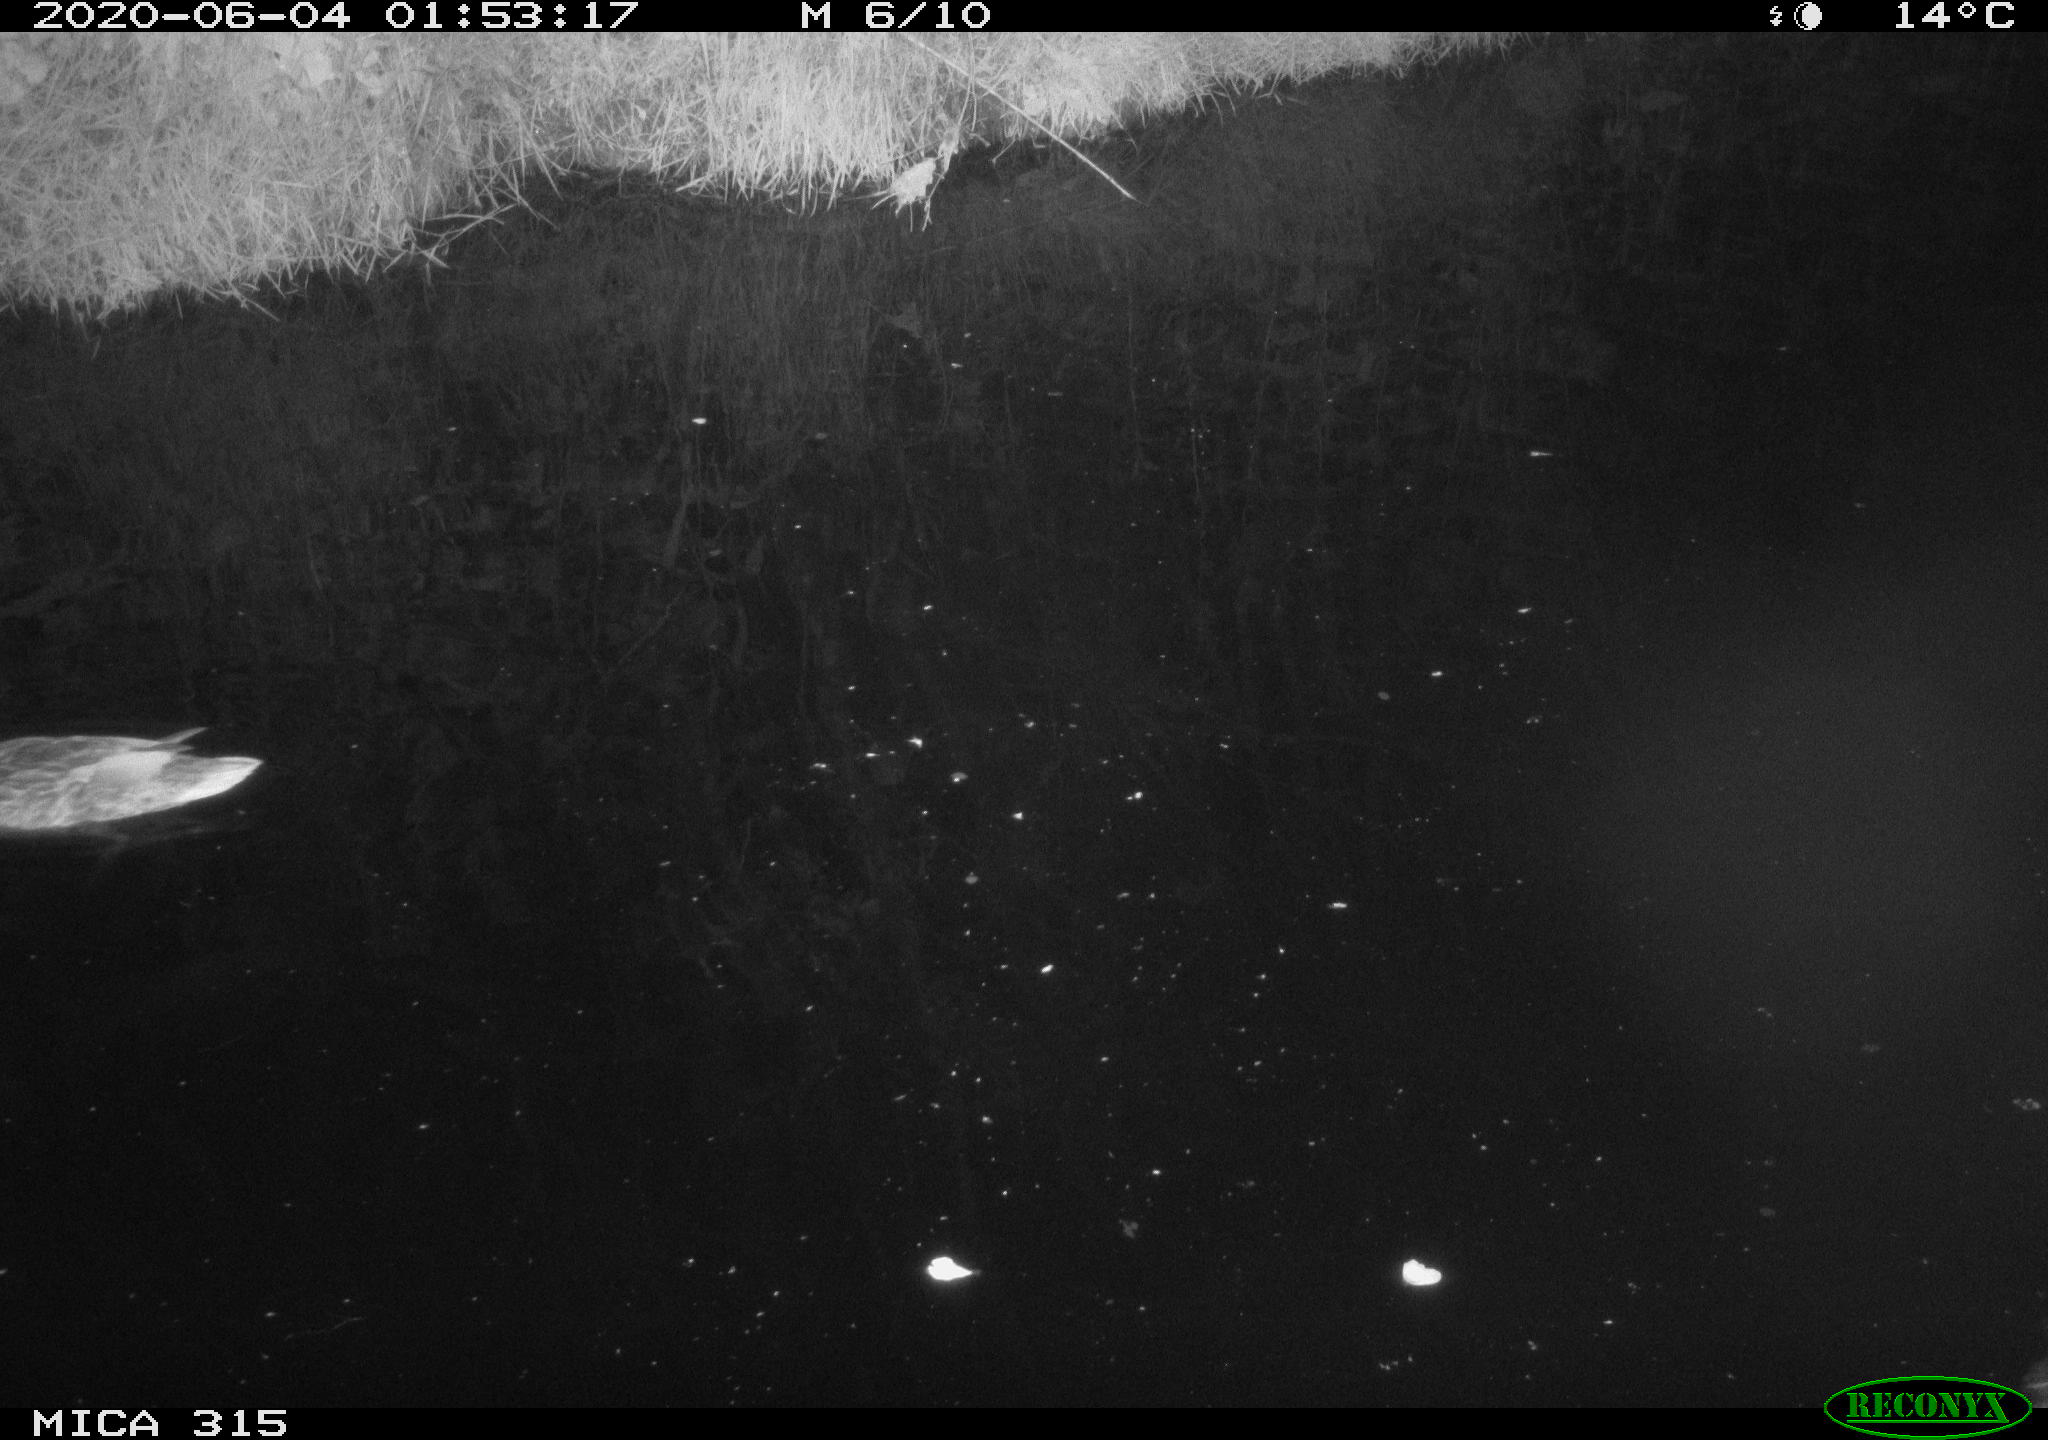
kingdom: Animalia
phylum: Chordata
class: Aves
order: Anseriformes
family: Anatidae
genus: Anas
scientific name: Anas platyrhynchos
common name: Mallard
